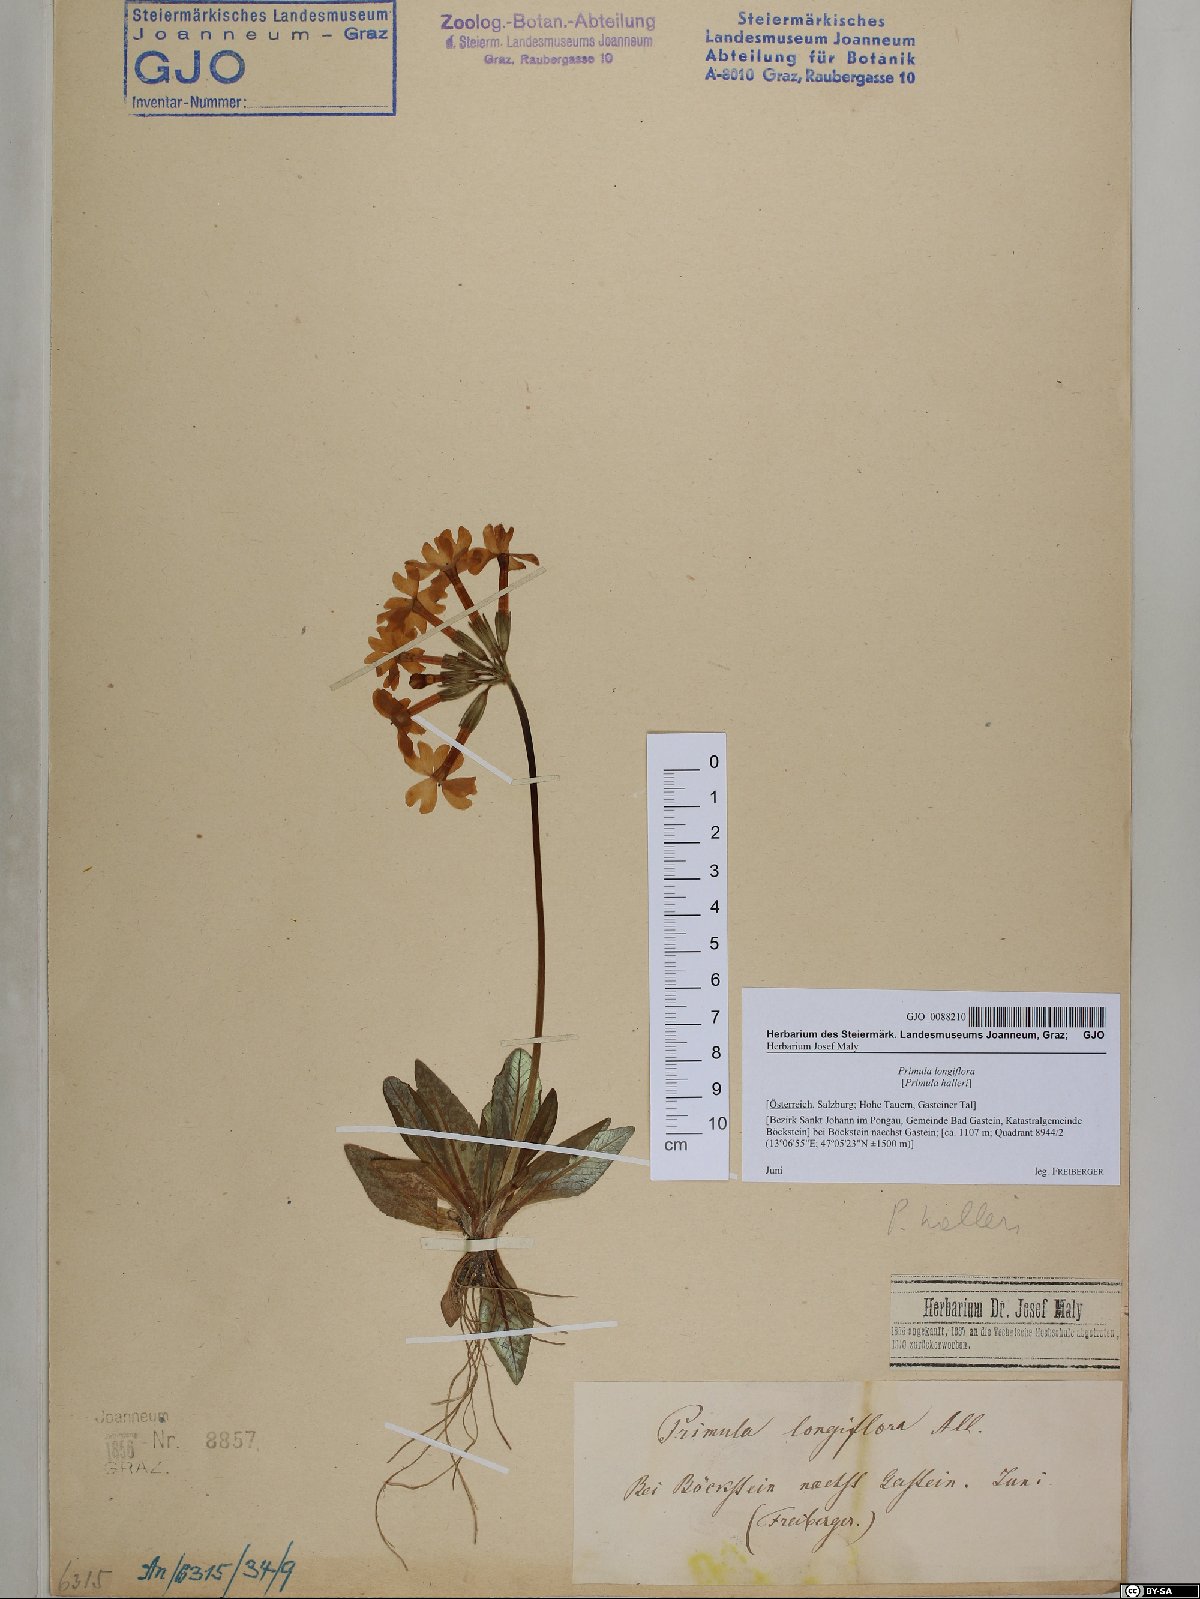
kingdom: Plantae
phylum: Tracheophyta
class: Magnoliopsida
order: Ericales
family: Primulaceae
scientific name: Primulaceae
